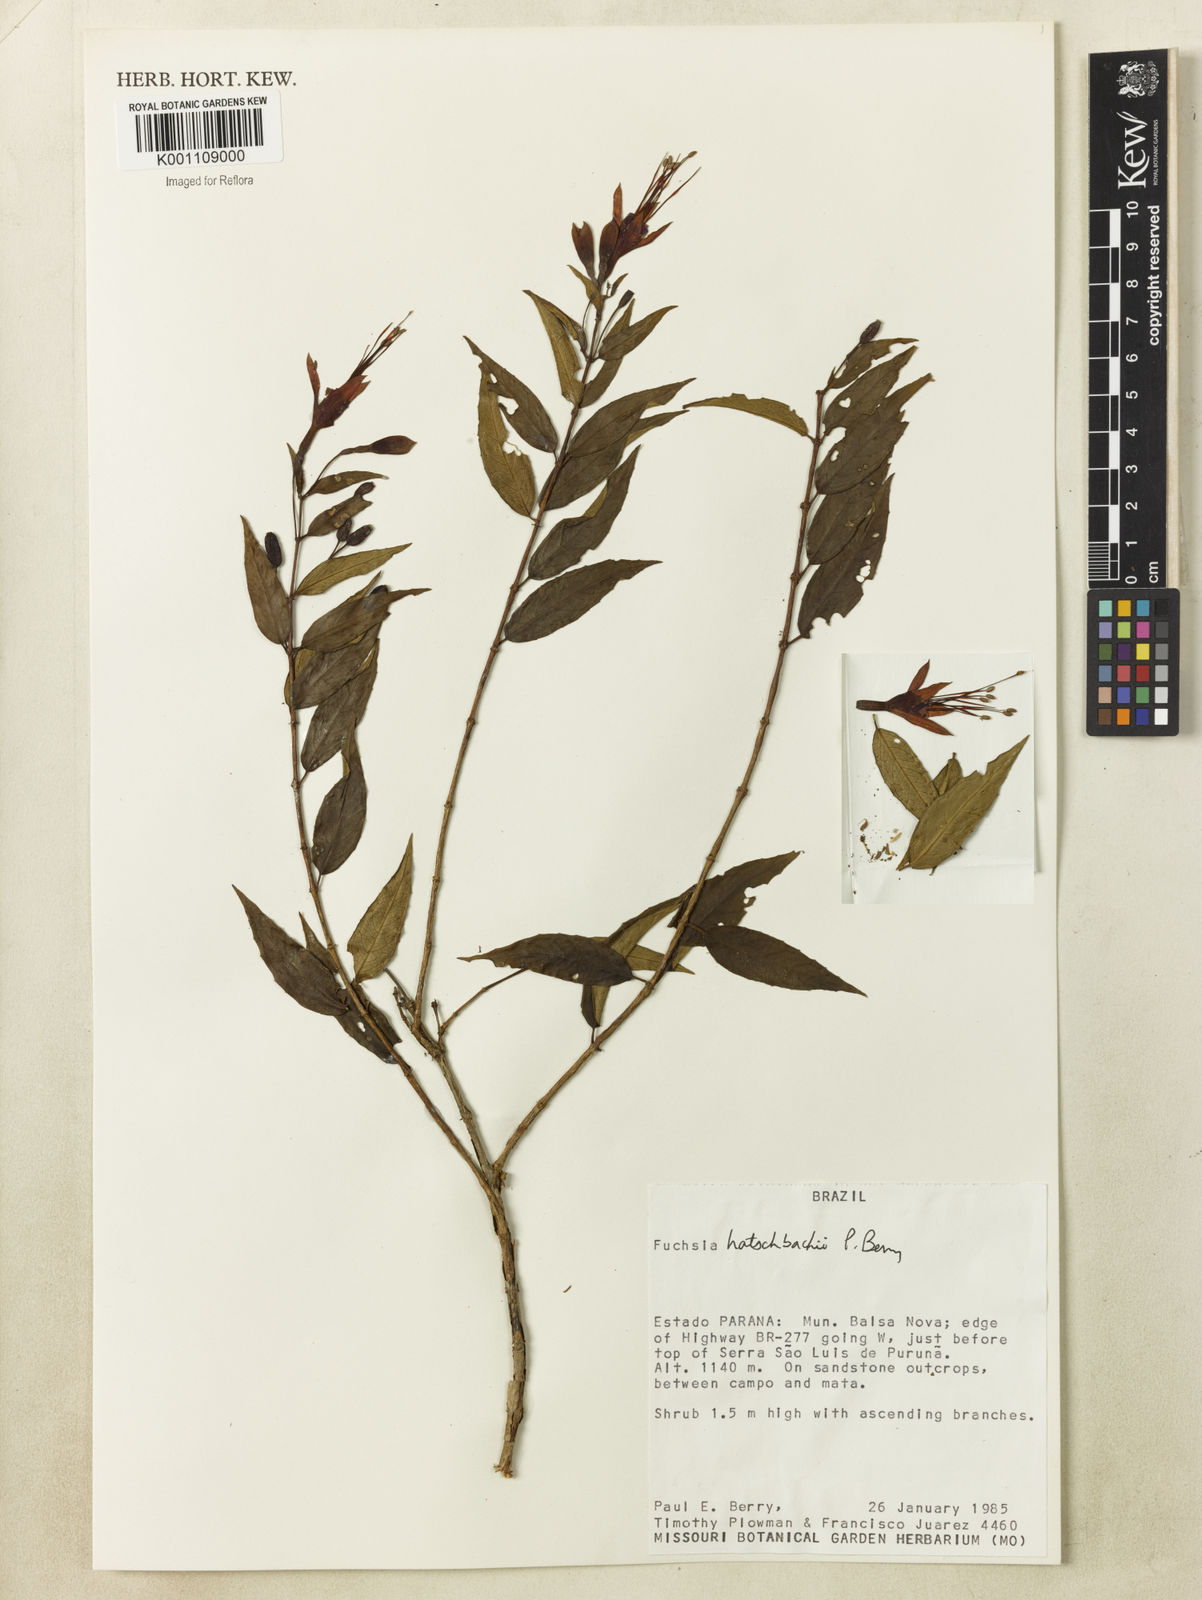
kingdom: Plantae
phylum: Tracheophyta
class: Magnoliopsida
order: Myrtales
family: Onagraceae
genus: Fuchsia
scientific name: Fuchsia hatschbachii
